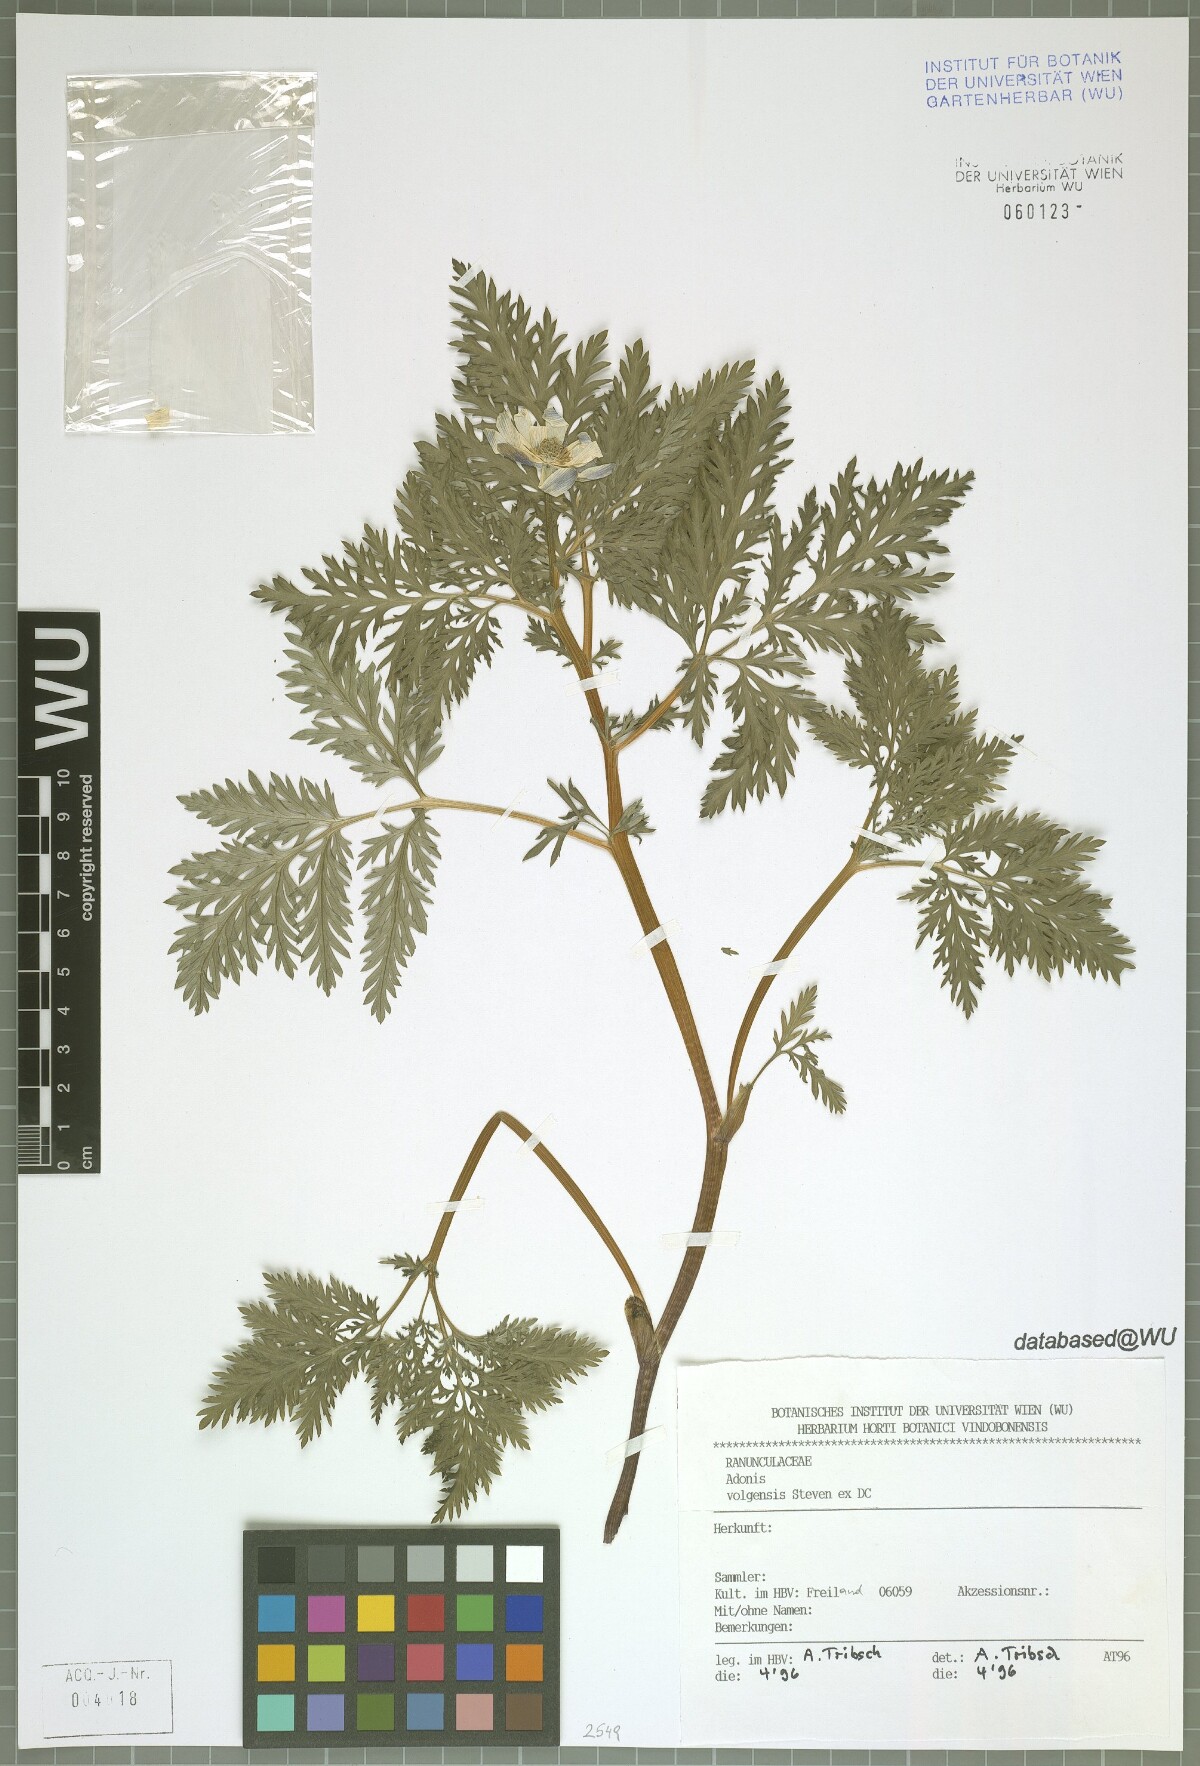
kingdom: Plantae
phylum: Tracheophyta
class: Magnoliopsida
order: Ranunculales
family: Ranunculaceae
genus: Adonis
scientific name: Adonis volgensis
